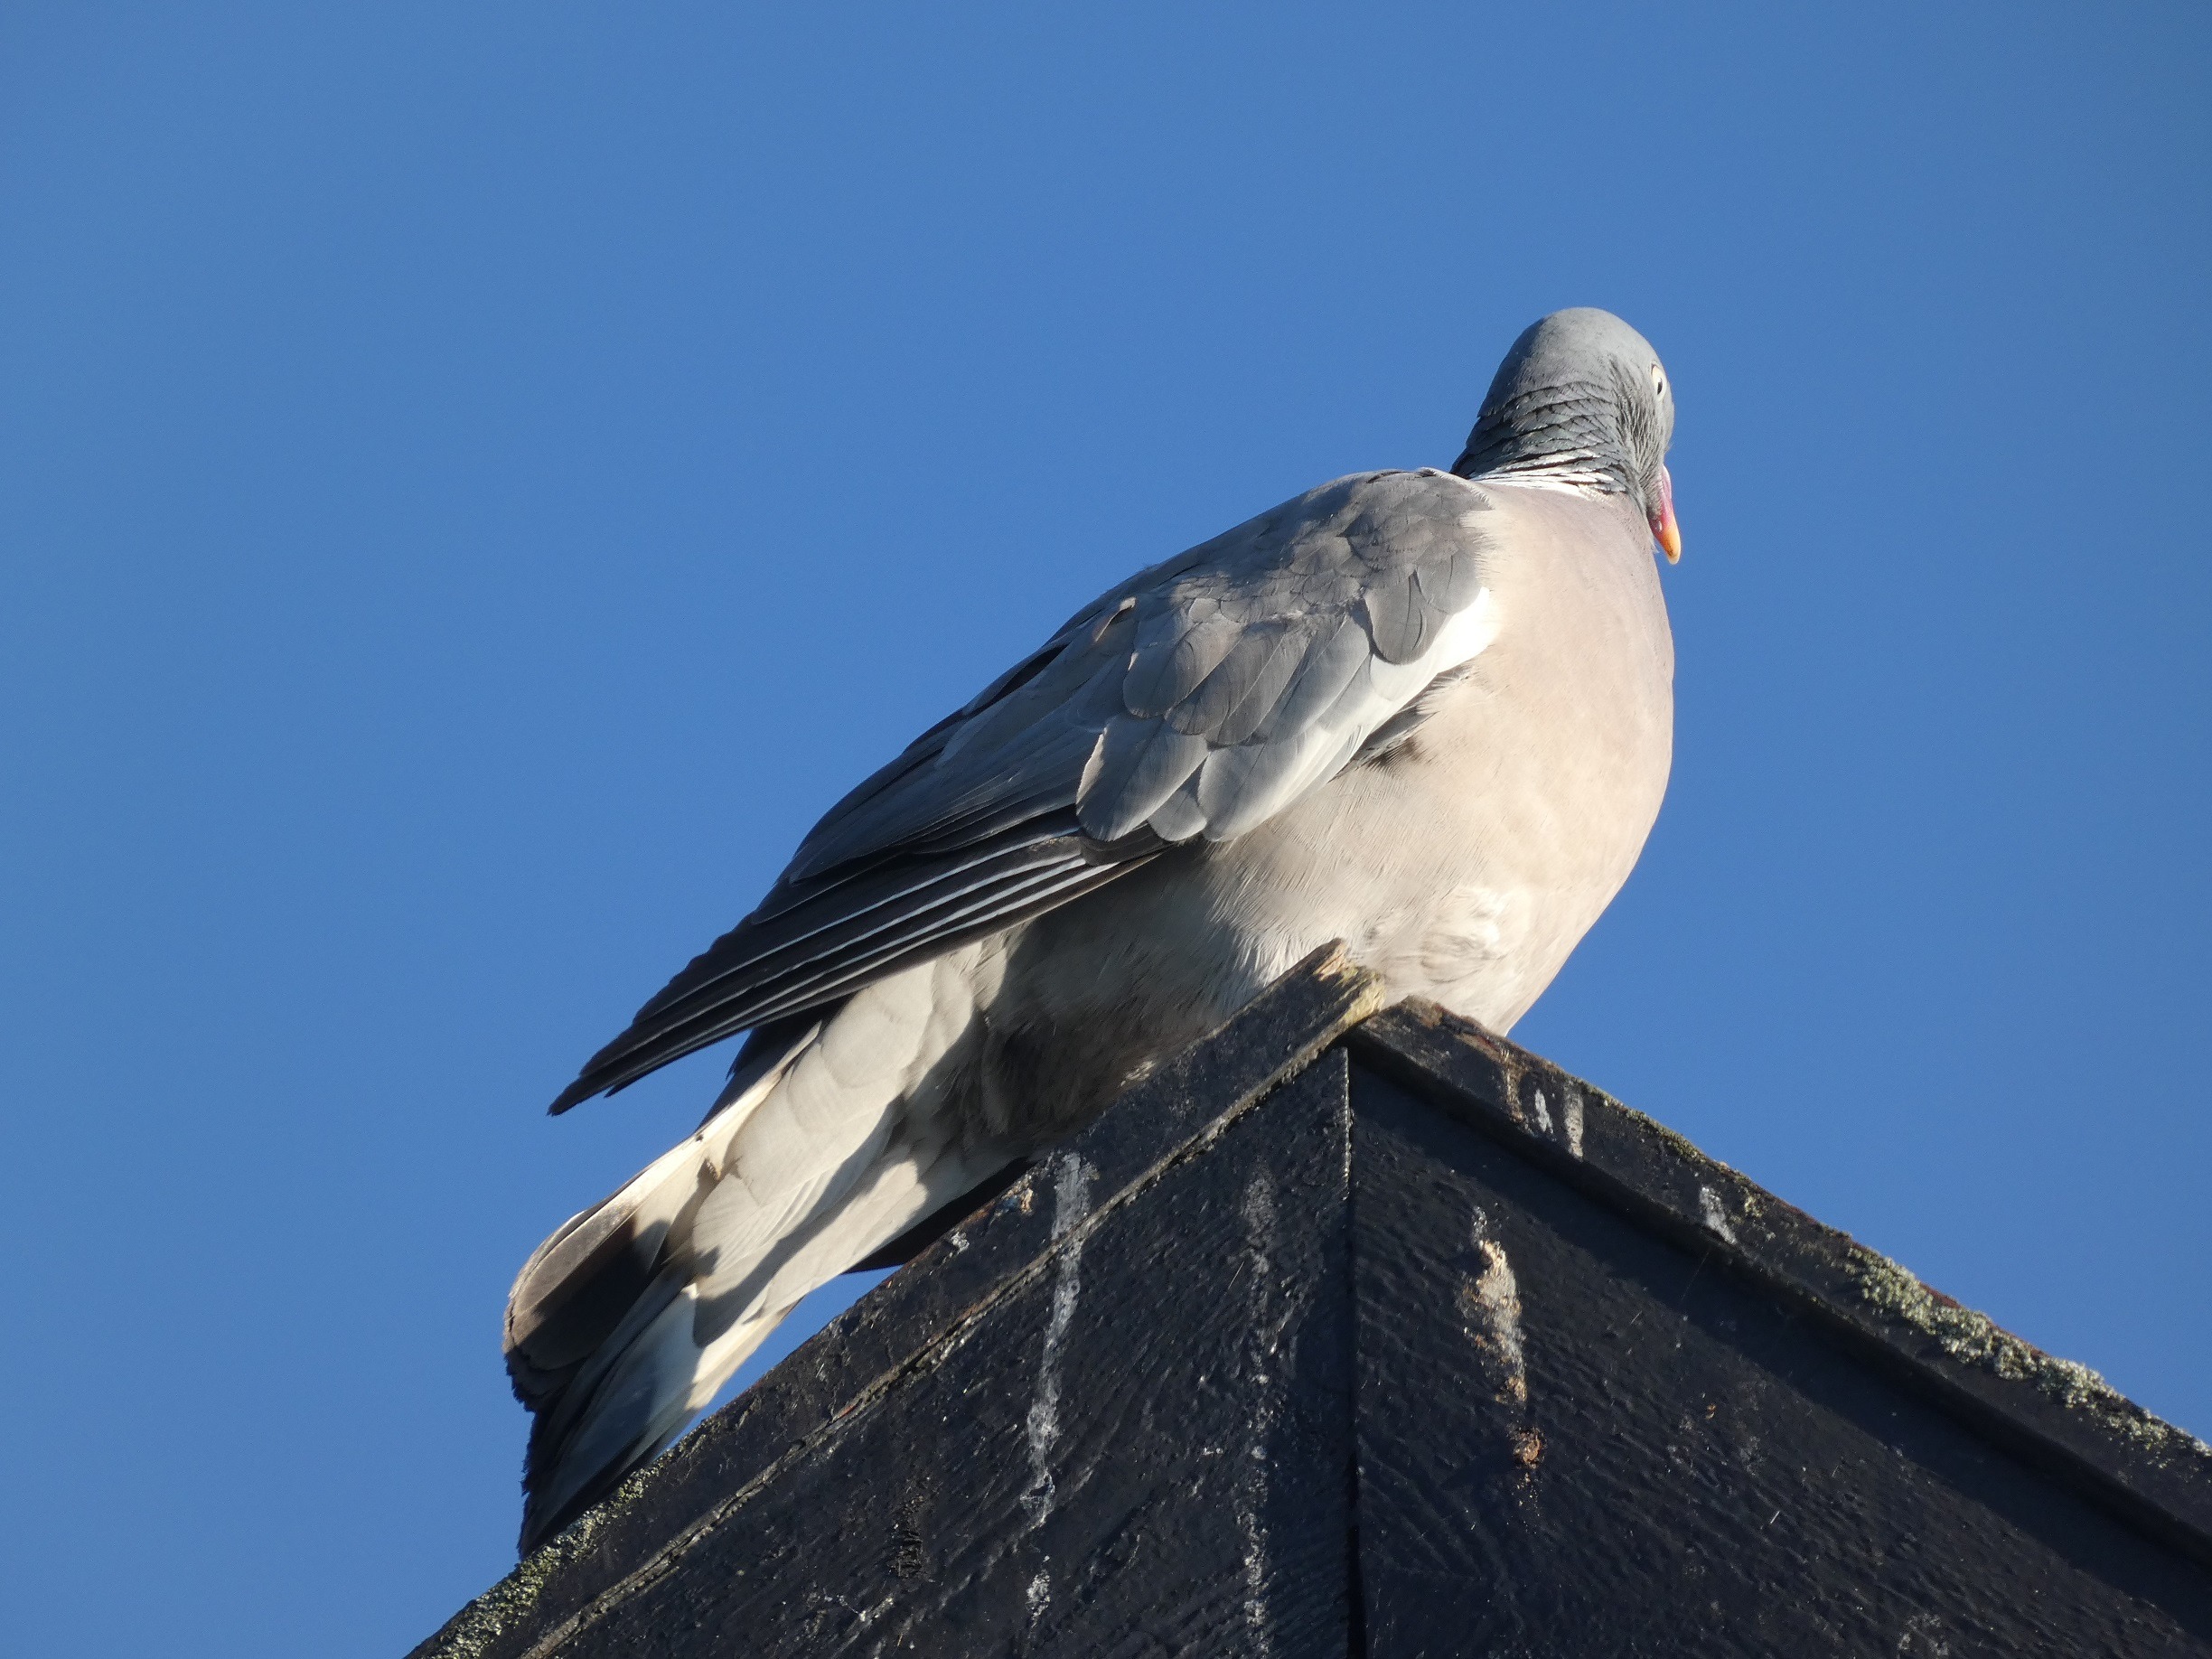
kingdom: Animalia
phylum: Chordata
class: Aves
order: Columbiformes
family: Columbidae
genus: Columba
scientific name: Columba palumbus
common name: Ringdue
